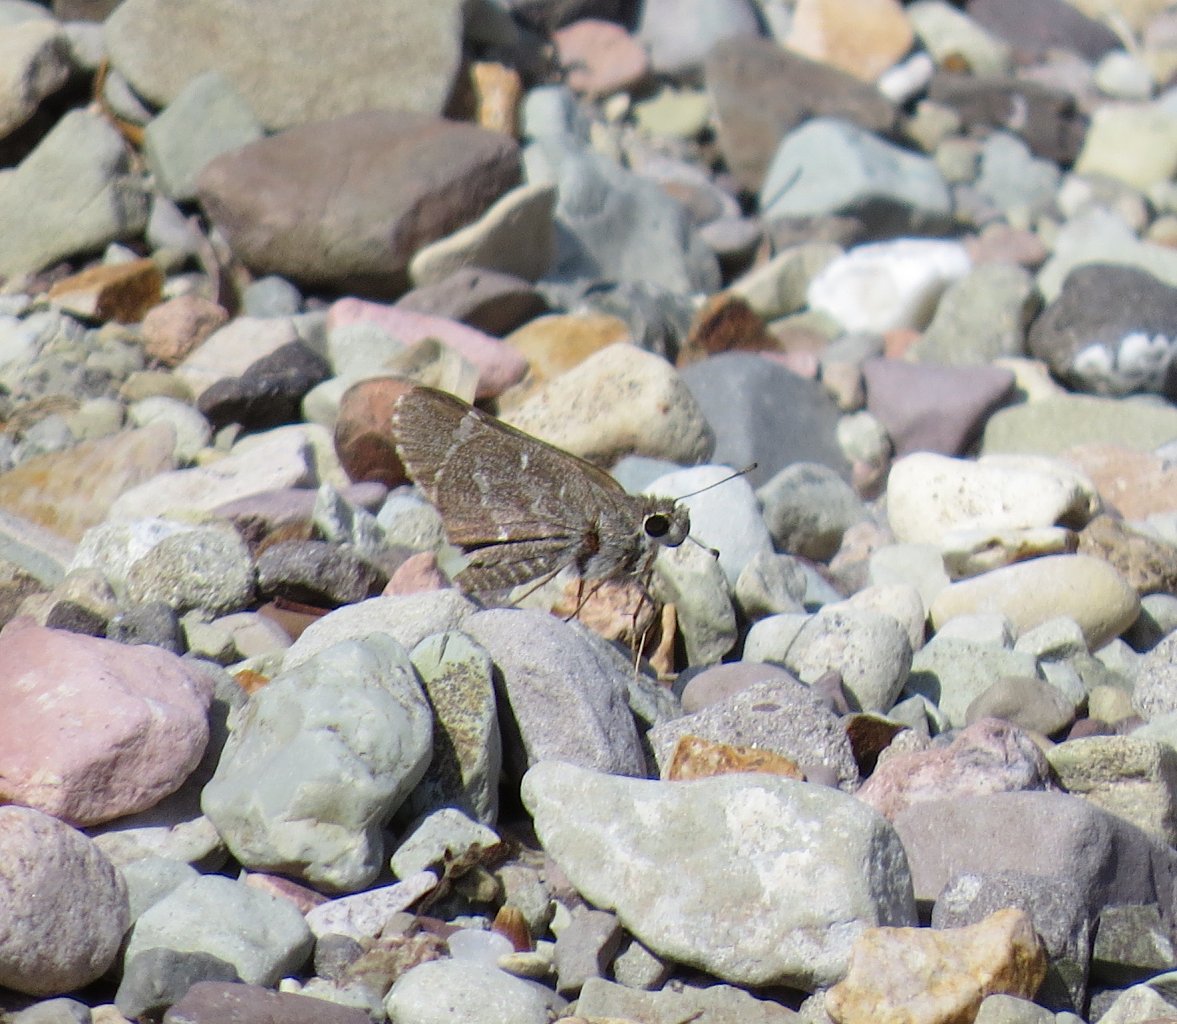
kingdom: Animalia
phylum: Arthropoda
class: Insecta
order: Lepidoptera
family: Hesperiidae
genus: Atrytonopsis
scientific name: Atrytonopsis pittacus
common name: White-barred Skipper
